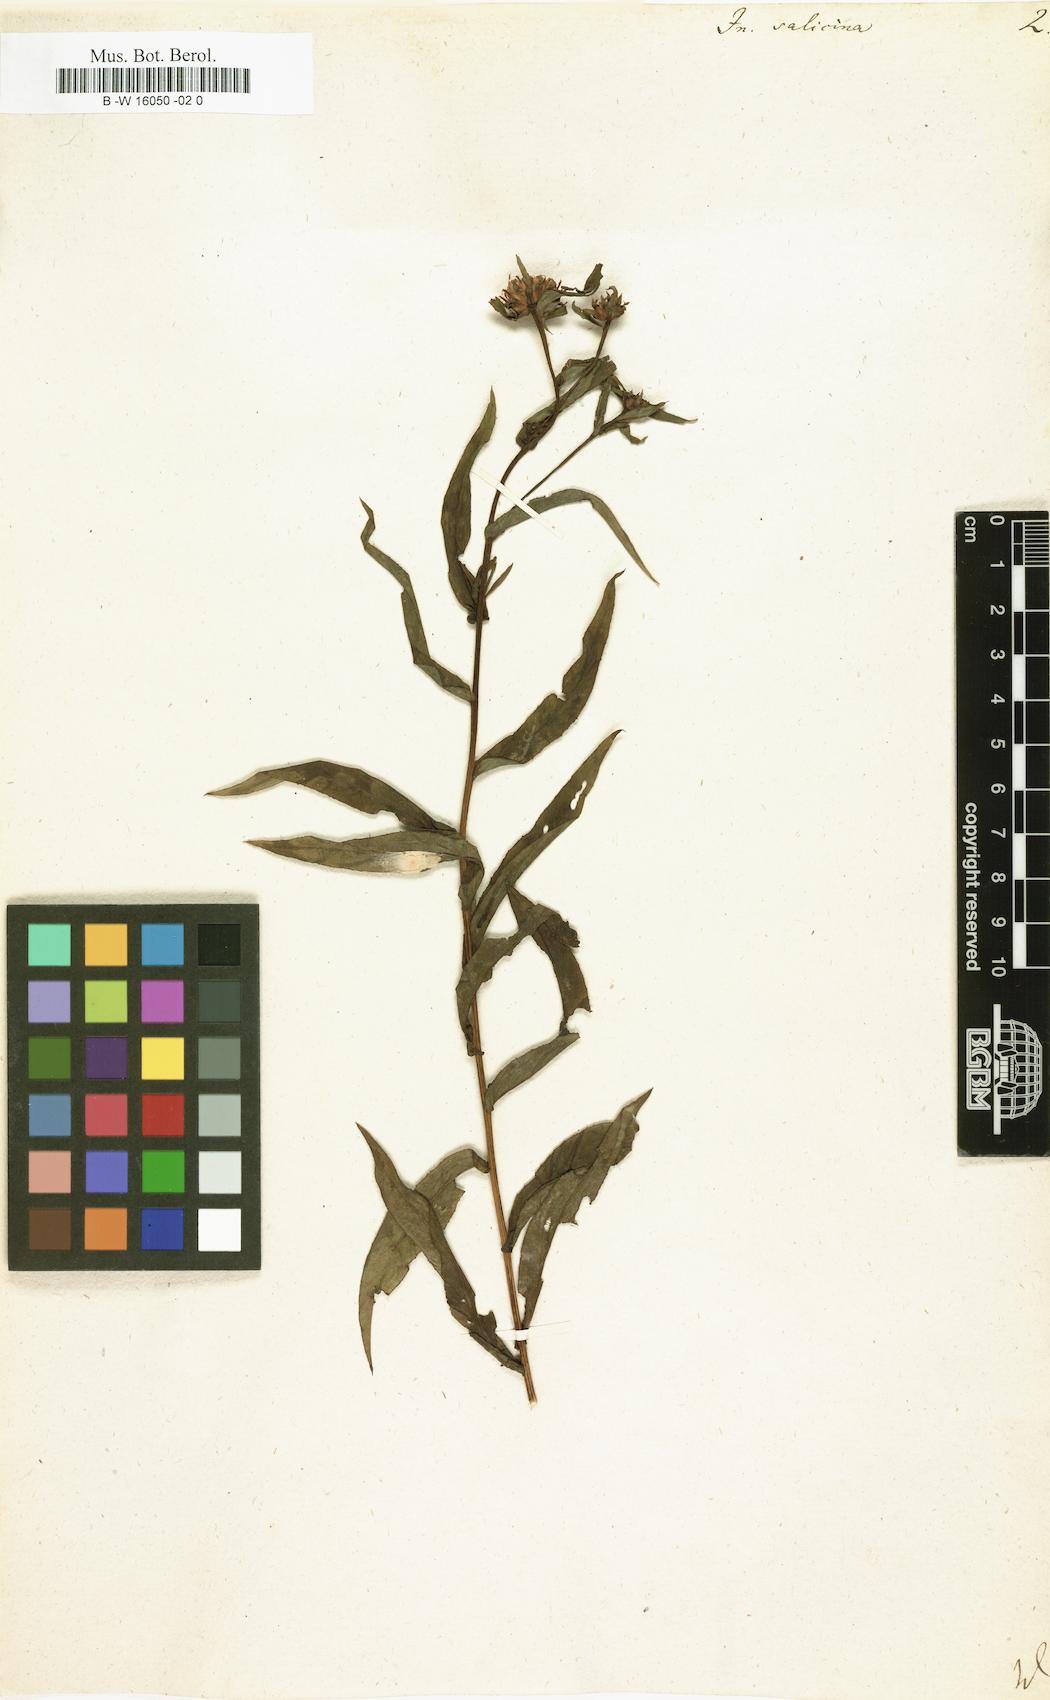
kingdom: Plantae
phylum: Tracheophyta
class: Magnoliopsida
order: Asterales
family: Asteraceae
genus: Pentanema
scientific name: Pentanema salicinum
